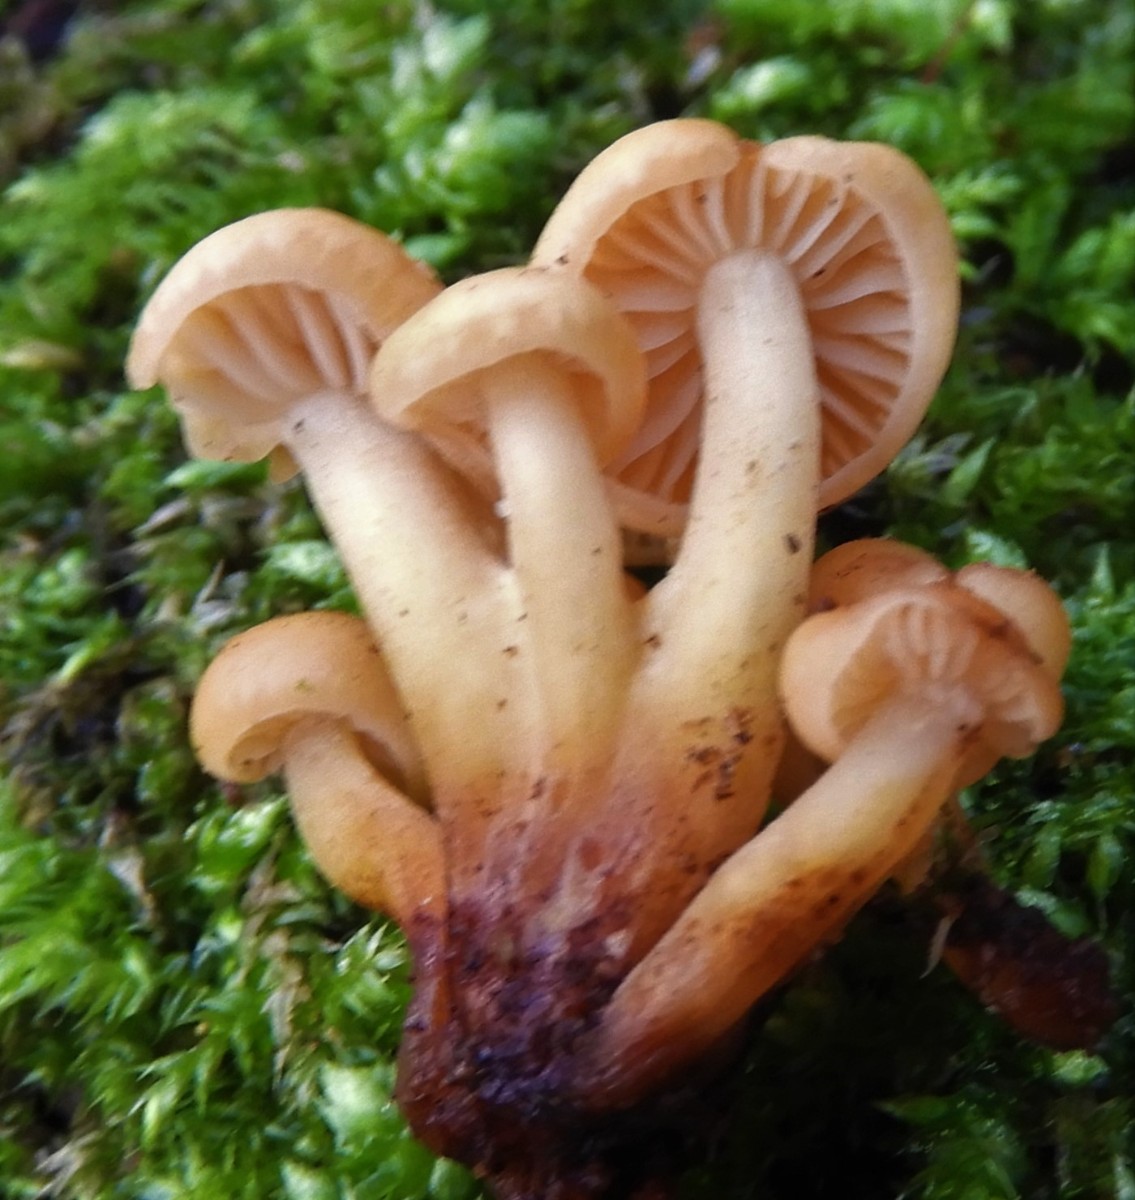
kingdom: Fungi
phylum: Basidiomycota
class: Agaricomycetes
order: Agaricales
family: Physalacriaceae
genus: Flammulina
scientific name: Flammulina
